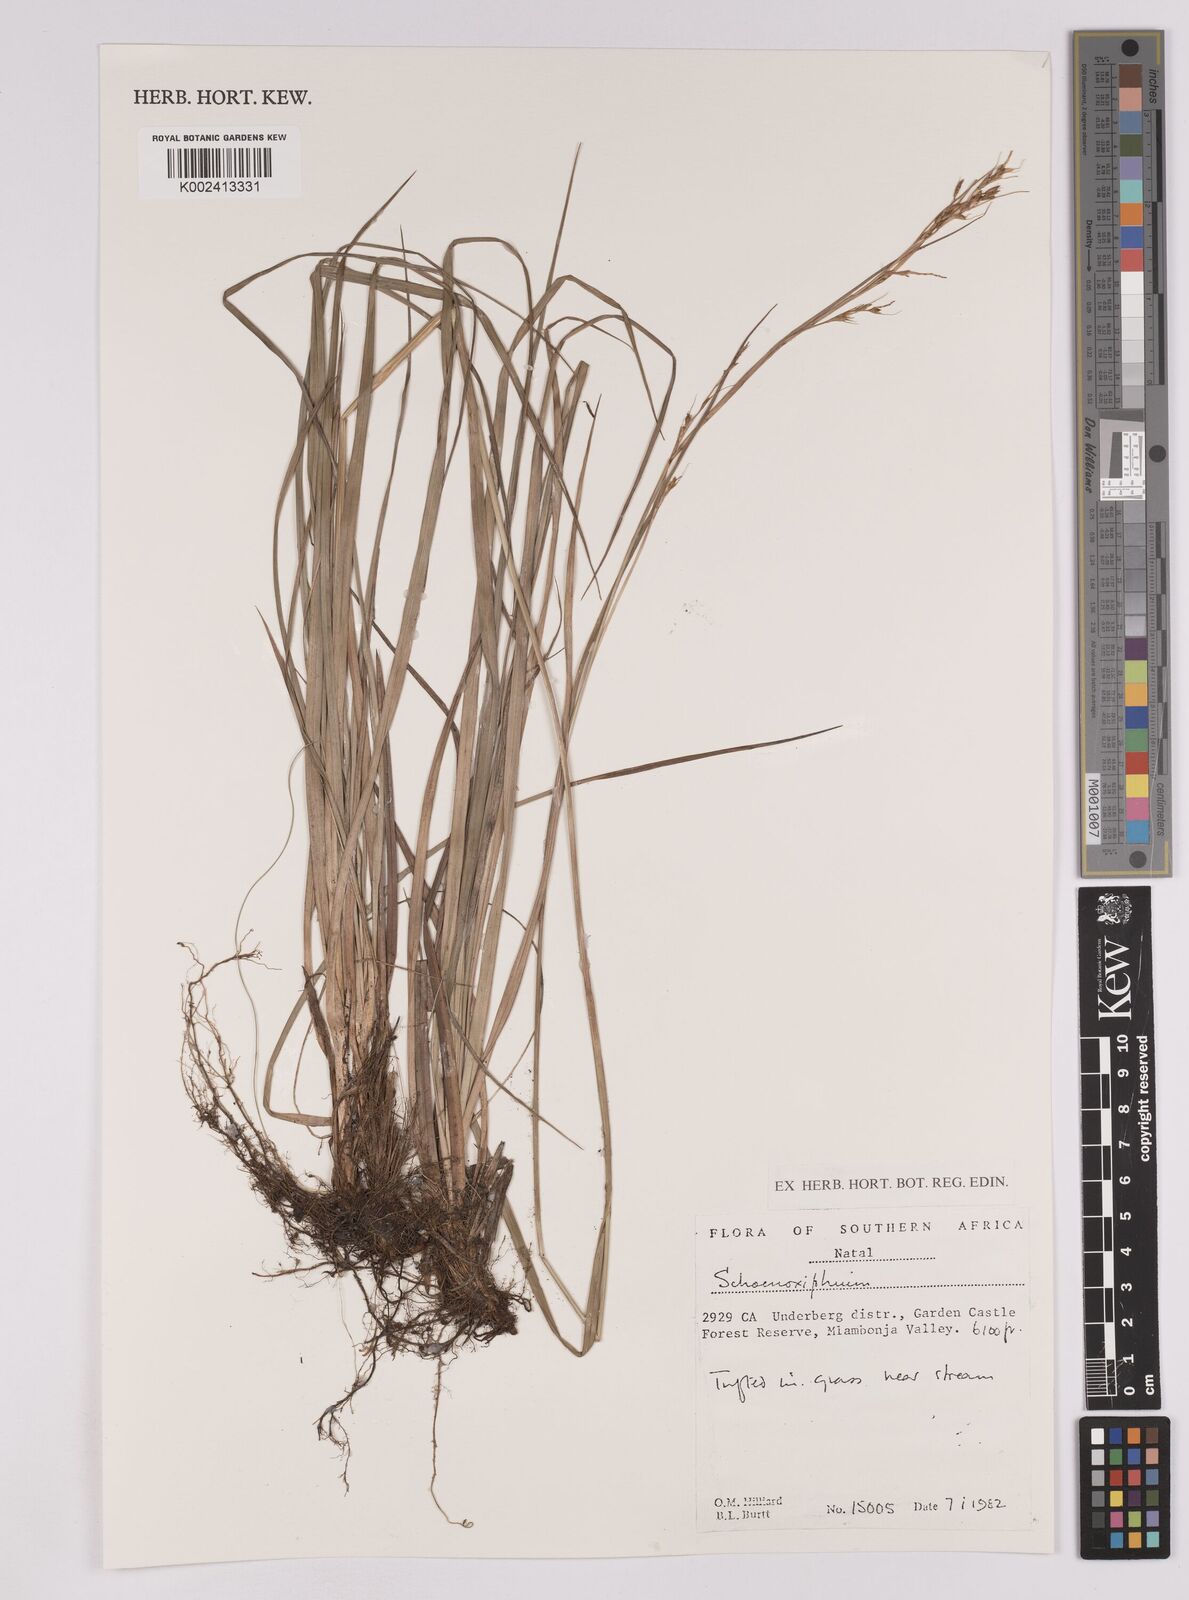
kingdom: Plantae
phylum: Tracheophyta
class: Liliopsida
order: Poales
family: Cyperaceae
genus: Carex
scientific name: Carex
